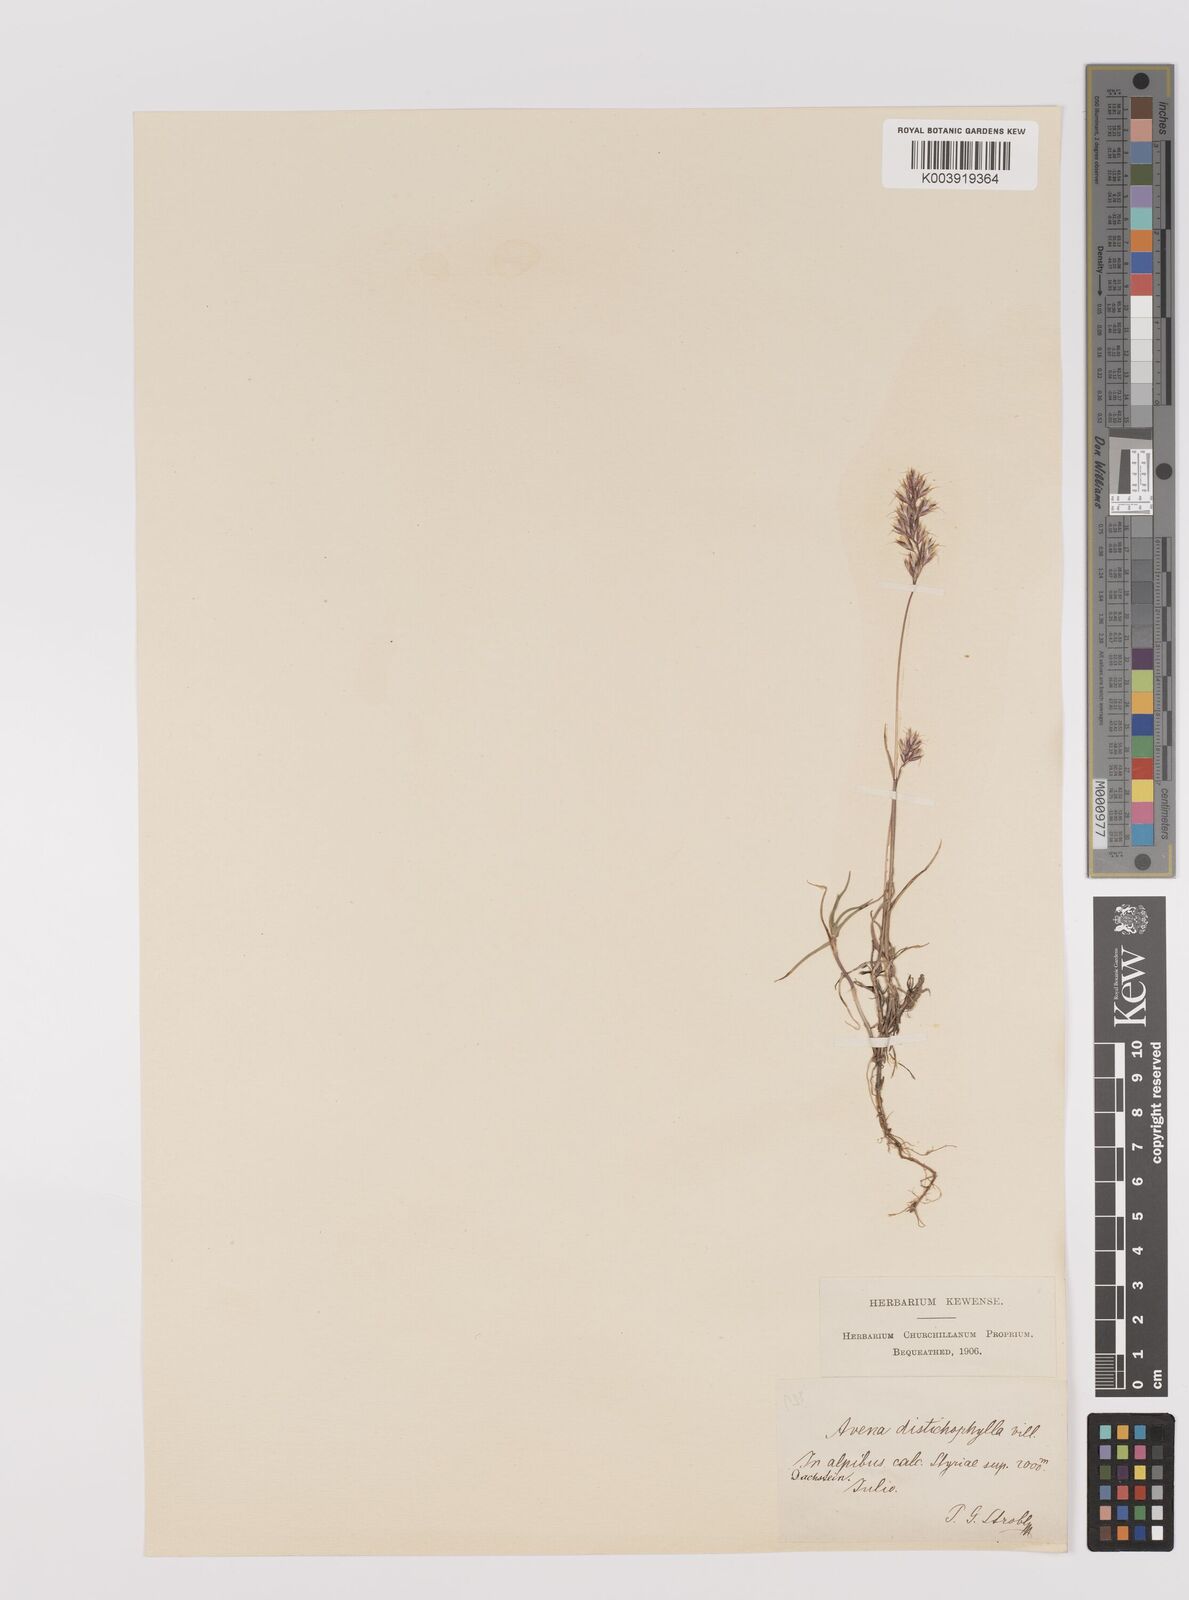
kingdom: Plantae
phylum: Tracheophyta
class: Liliopsida
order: Poales
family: Poaceae
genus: Acrospelion
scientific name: Acrospelion distichophyllum
